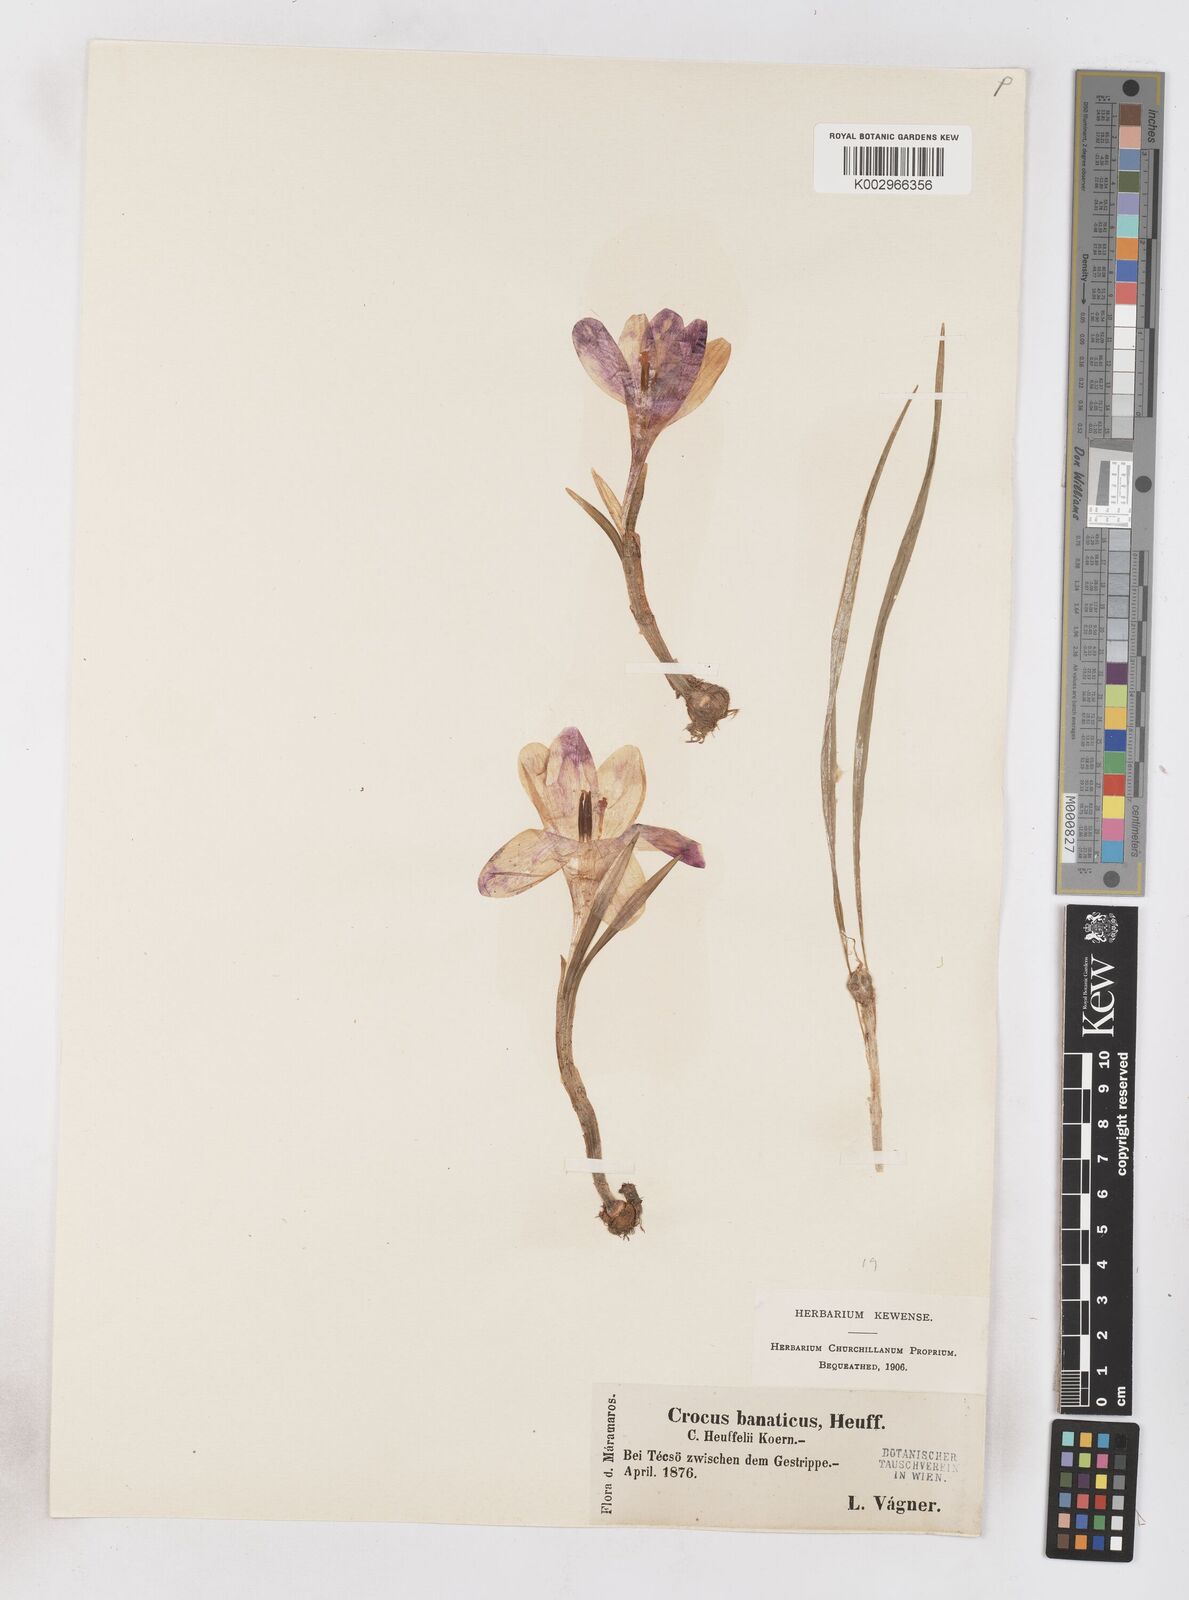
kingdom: Plantae
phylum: Tracheophyta
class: Liliopsida
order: Asparagales
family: Iridaceae
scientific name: Iridaceae
